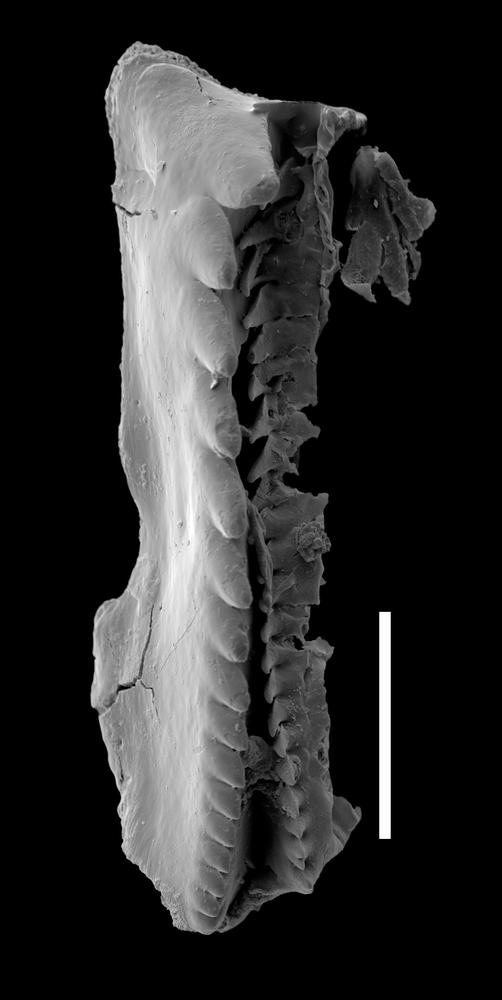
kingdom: Animalia
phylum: Annelida
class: Polychaeta
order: Eunicida
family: Mochtyellidae
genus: Vistulella
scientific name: Vistulella
